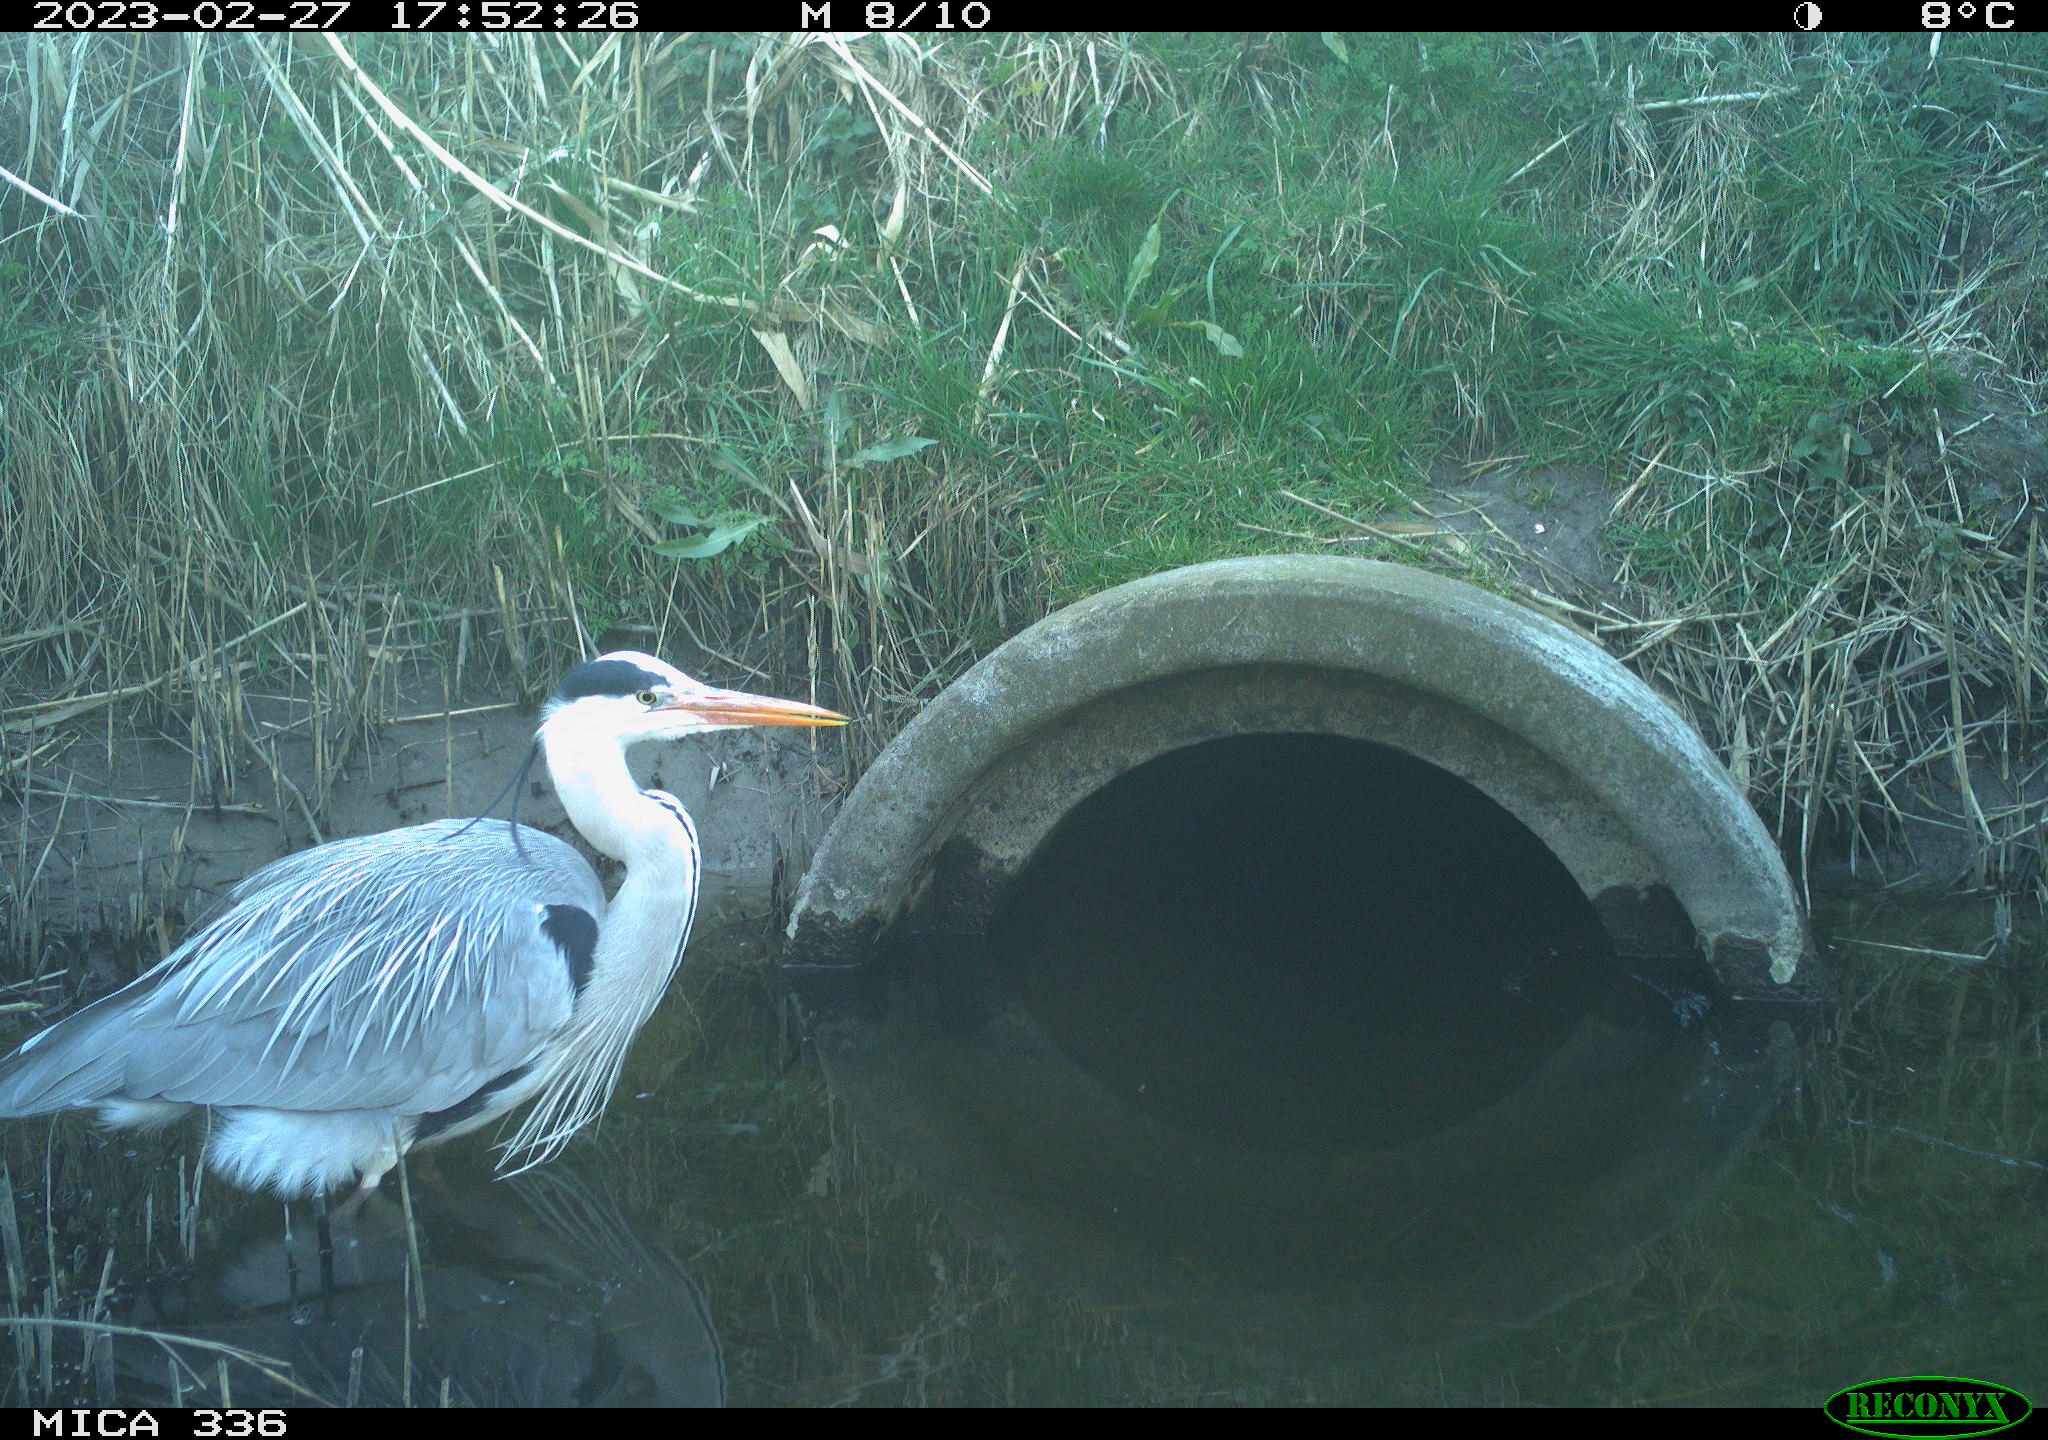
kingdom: Animalia
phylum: Chordata
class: Aves
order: Pelecaniformes
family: Ardeidae
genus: Ardea
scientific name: Ardea cinerea
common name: Grey heron
